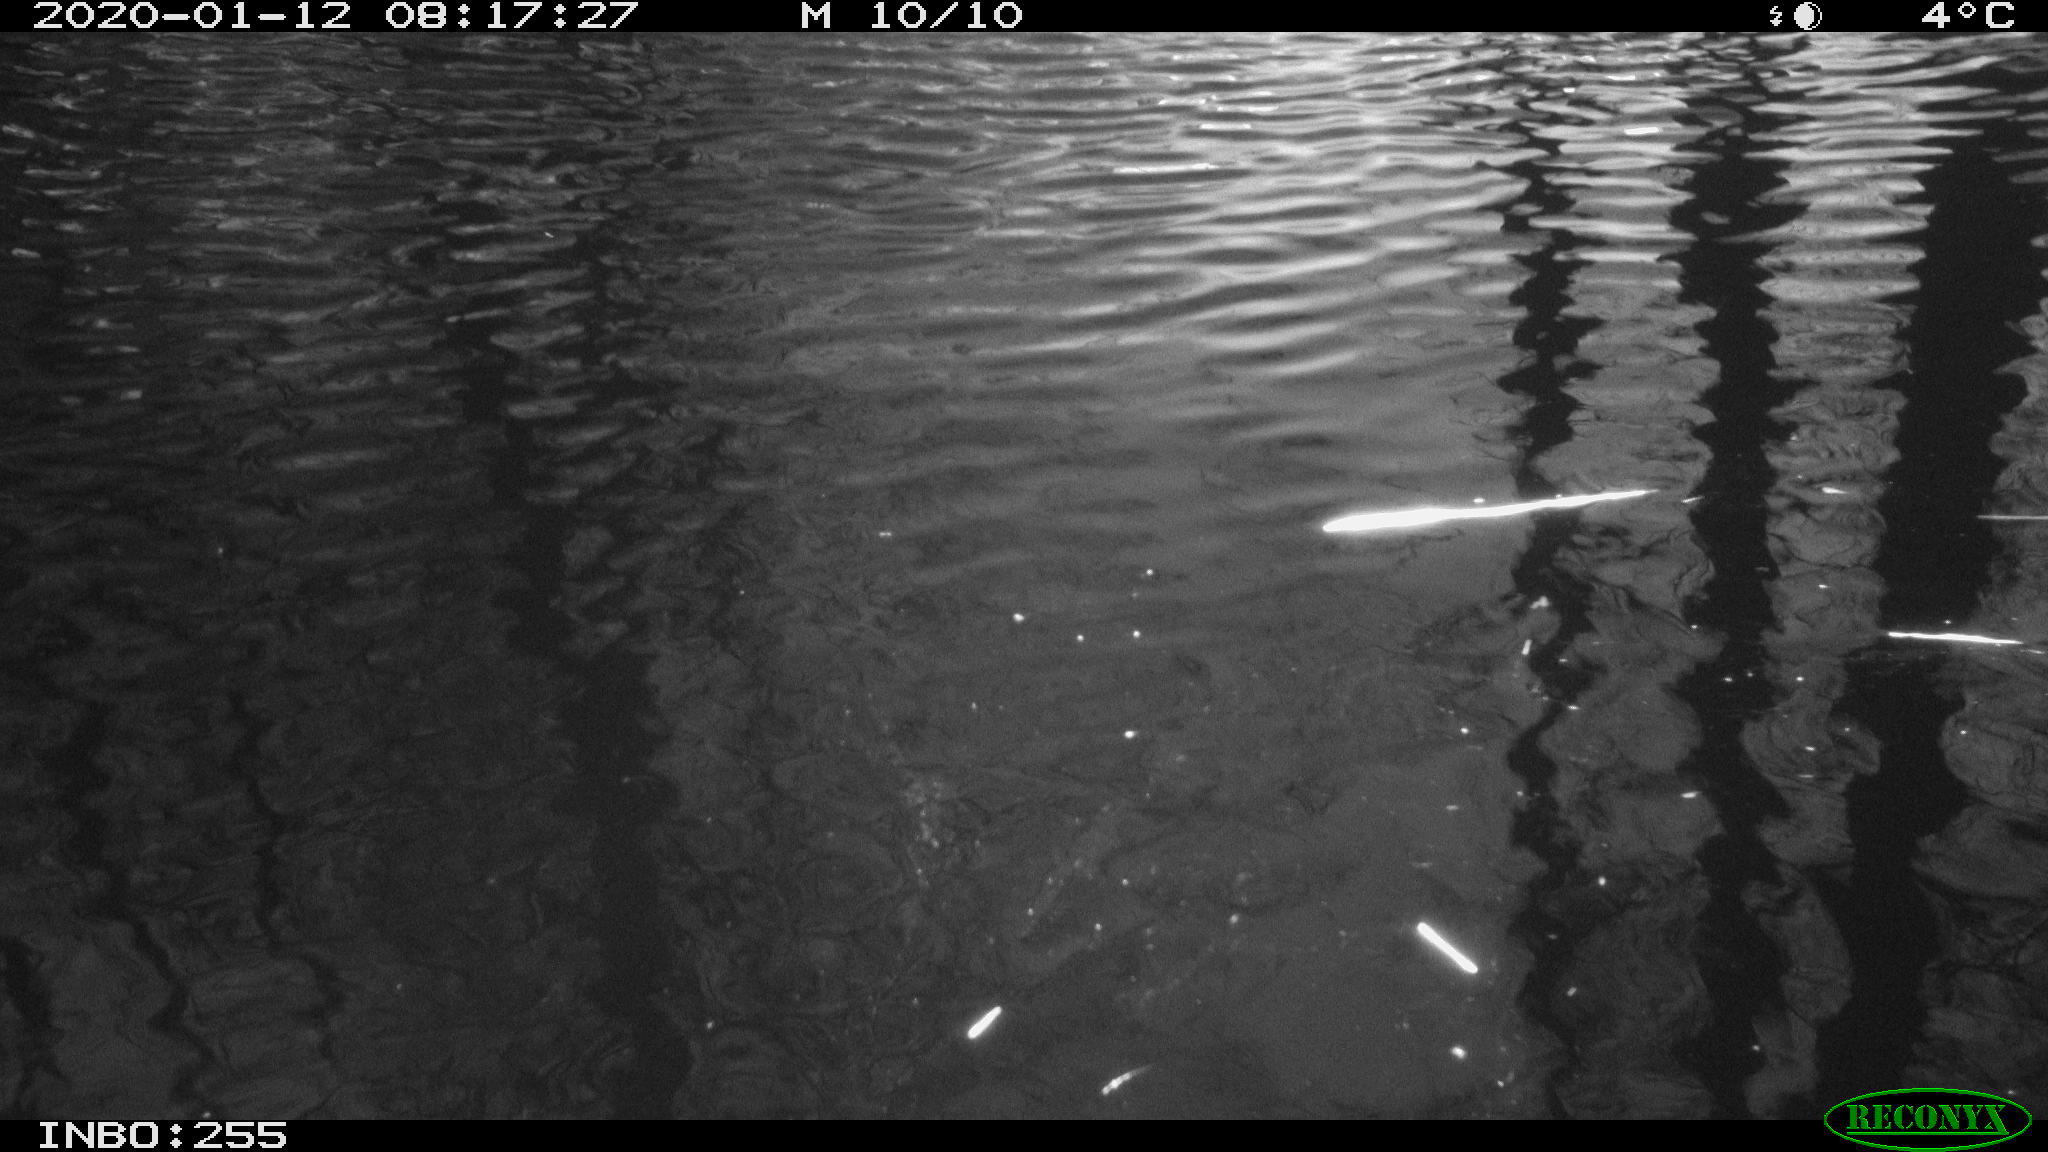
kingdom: Animalia
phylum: Chordata
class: Aves
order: Gruiformes
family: Rallidae
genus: Gallinula
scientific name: Gallinula chloropus
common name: Common moorhen
